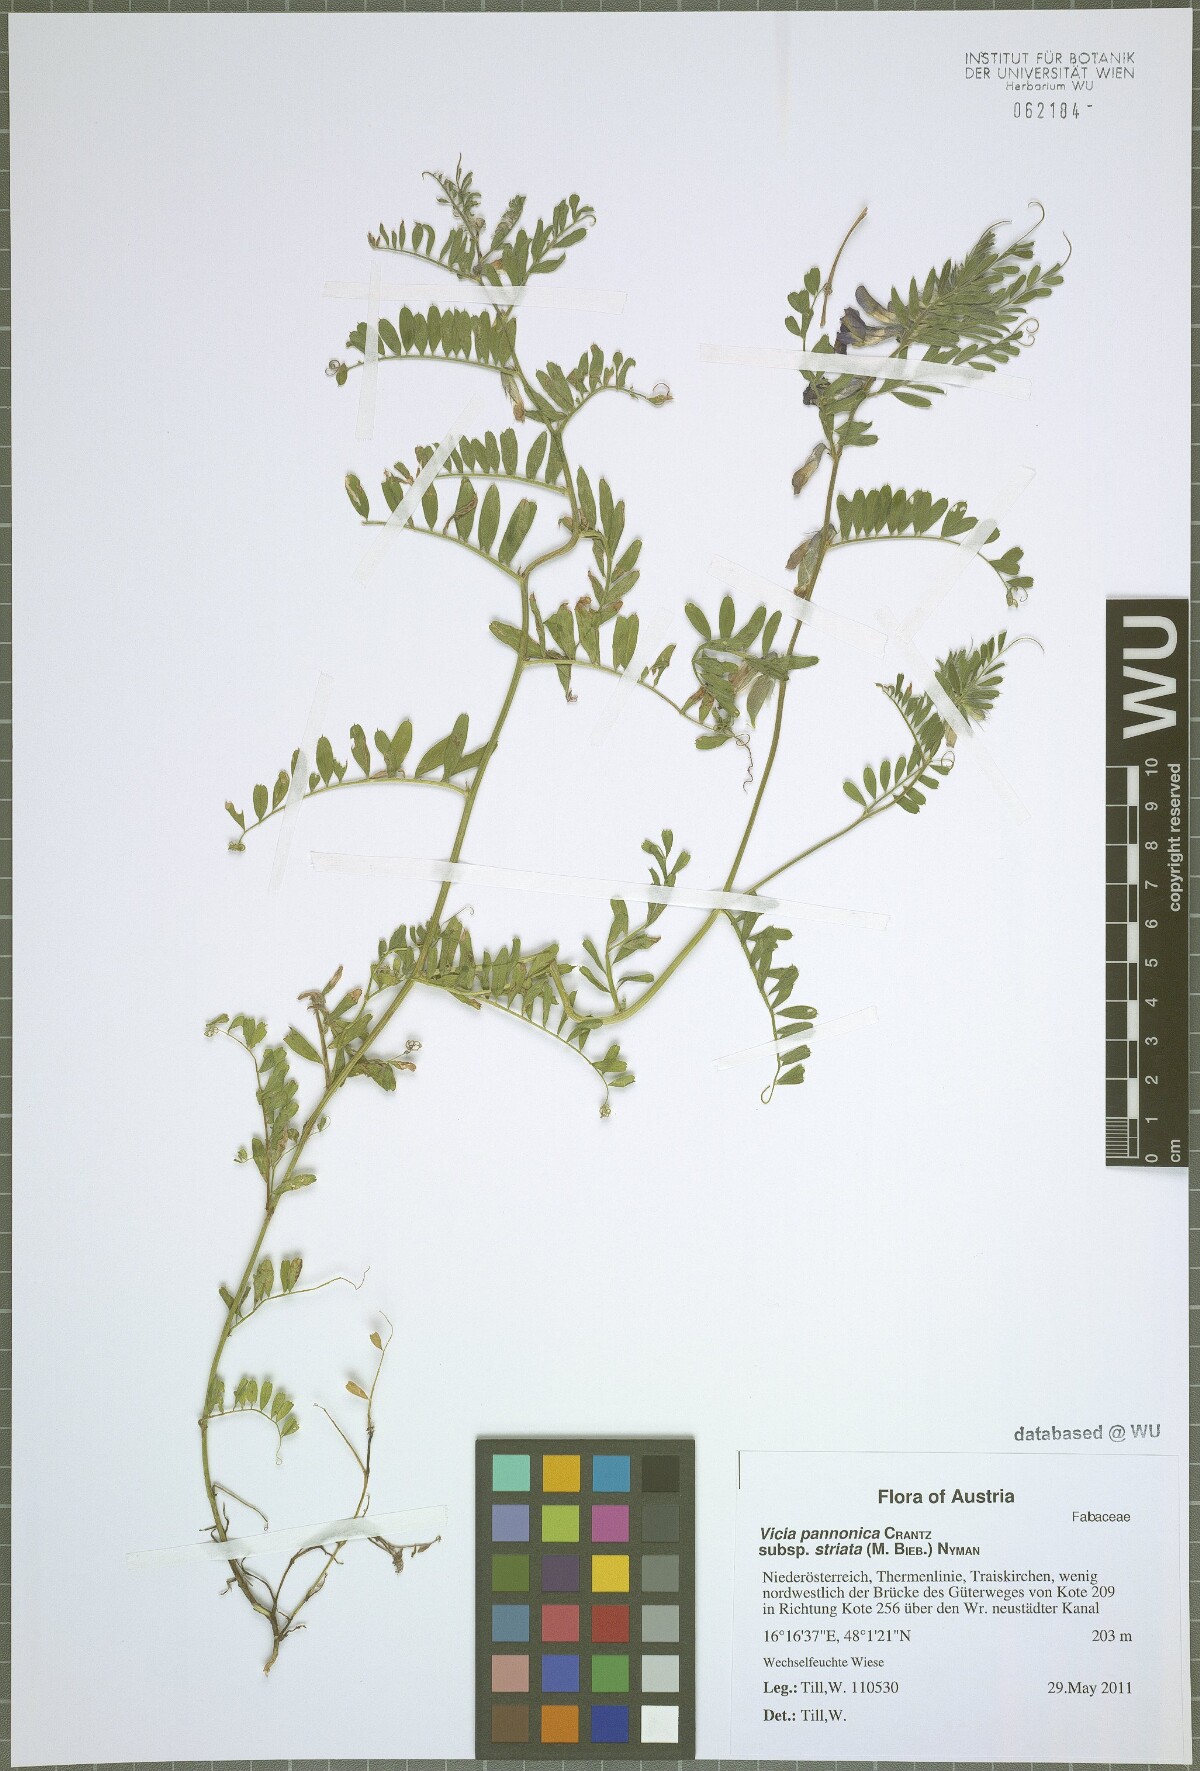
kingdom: Plantae
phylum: Tracheophyta
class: Magnoliopsida
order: Fabales
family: Fabaceae
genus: Vicia
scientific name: Vicia pannonica
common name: Hungarian vetch
